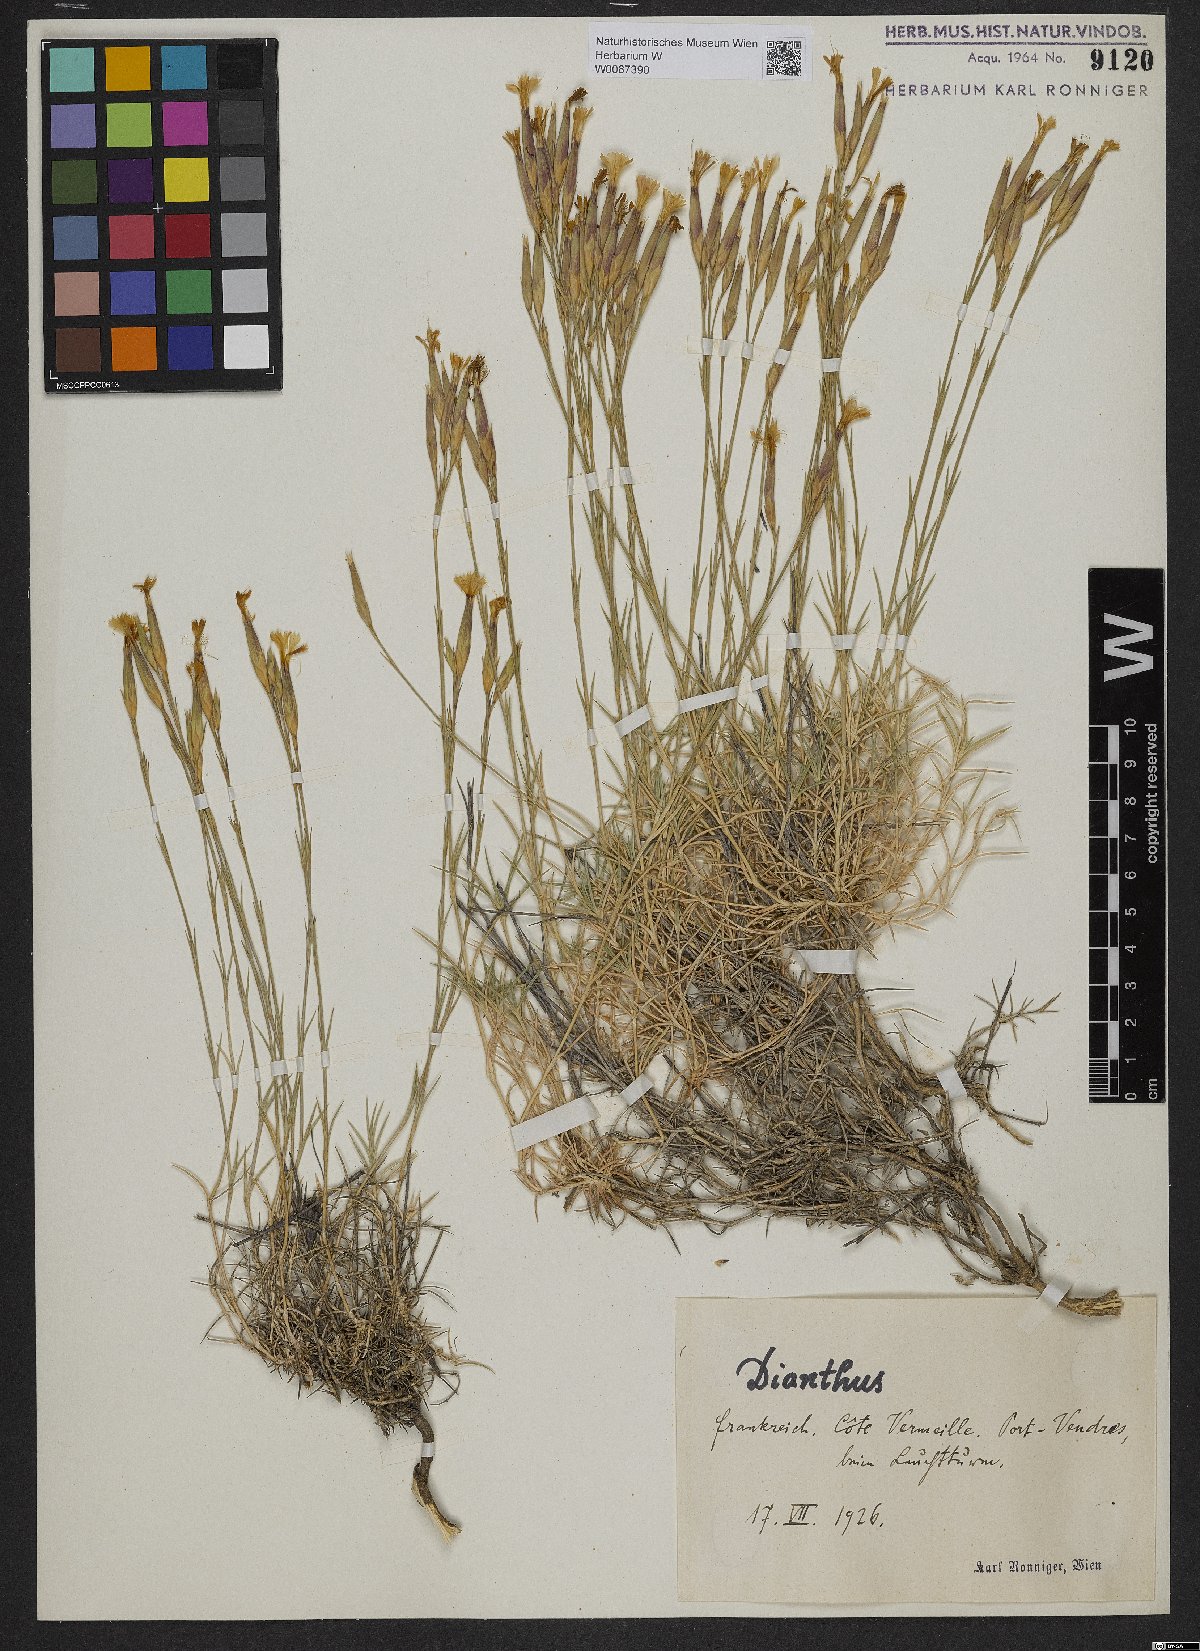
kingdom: Plantae
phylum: Tracheophyta
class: Magnoliopsida
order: Caryophyllales
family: Caryophyllaceae
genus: Dianthus
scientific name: Dianthus
